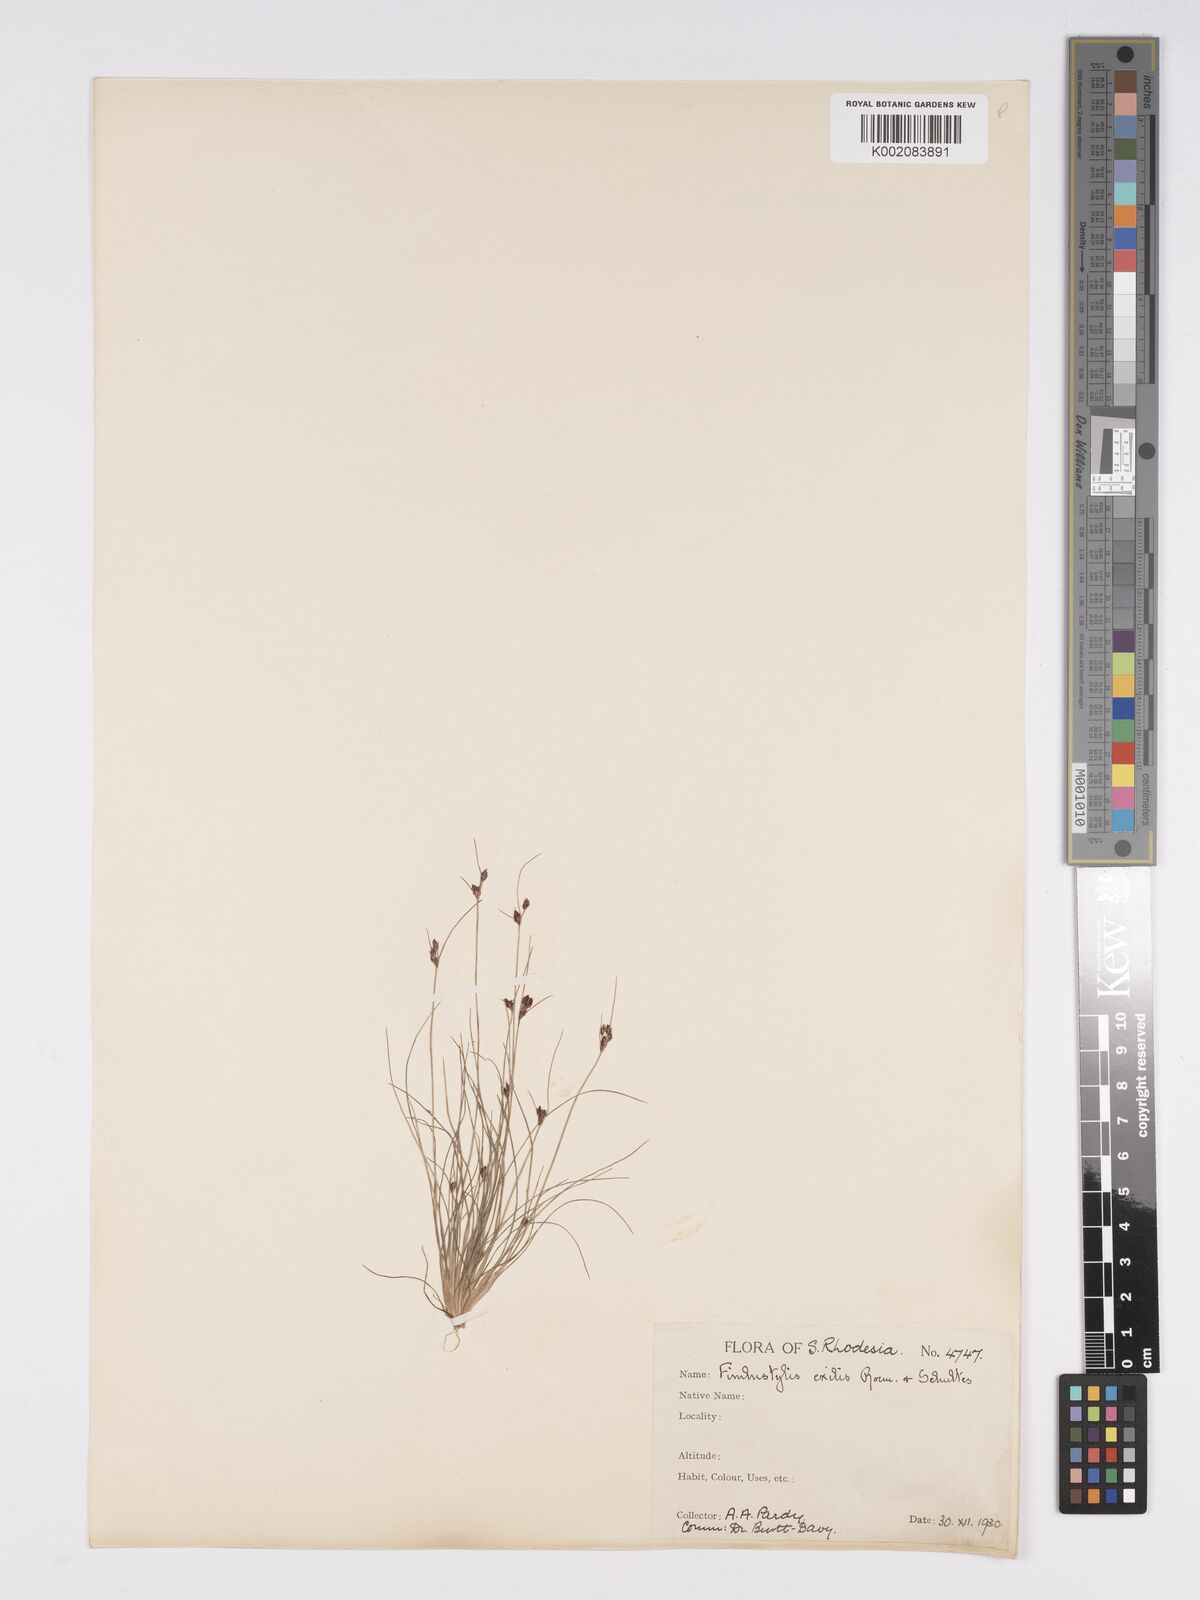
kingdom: Plantae
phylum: Tracheophyta
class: Liliopsida
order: Poales
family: Cyperaceae
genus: Bulbostylis
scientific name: Bulbostylis hispidula
